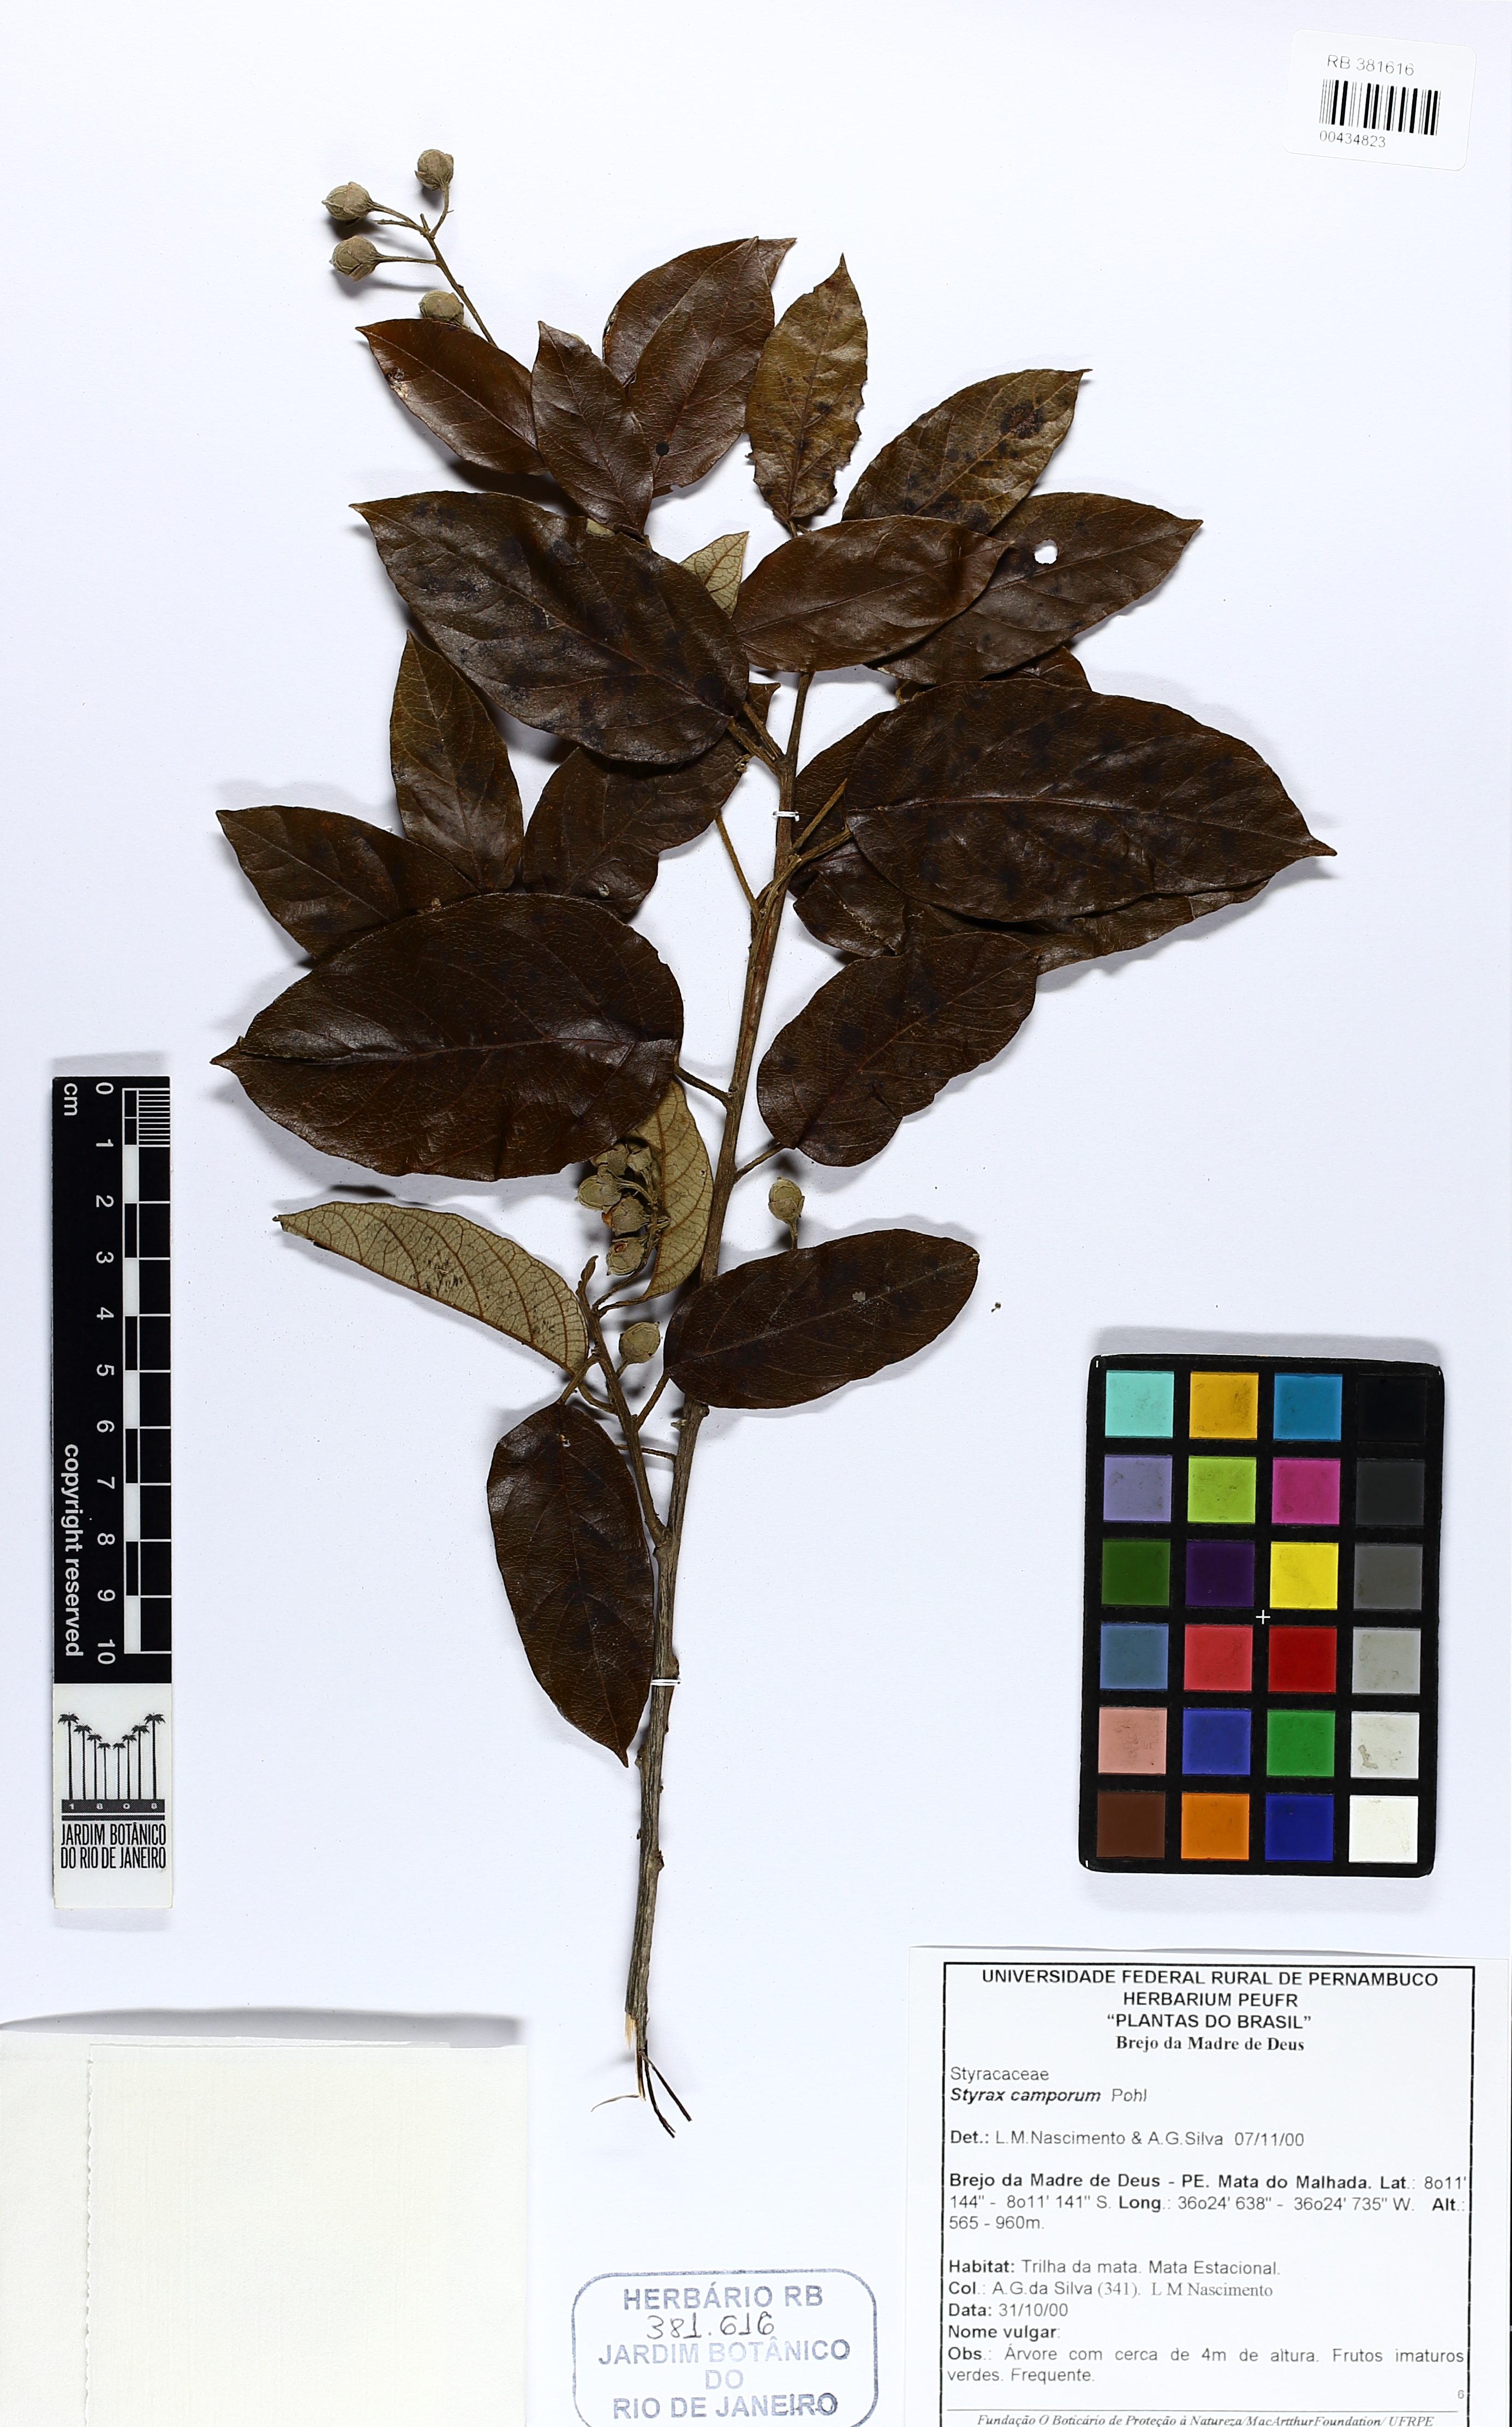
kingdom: Plantae
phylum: Tracheophyta
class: Magnoliopsida
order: Ericales
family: Styracaceae
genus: Styrax
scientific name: Styrax camporum
